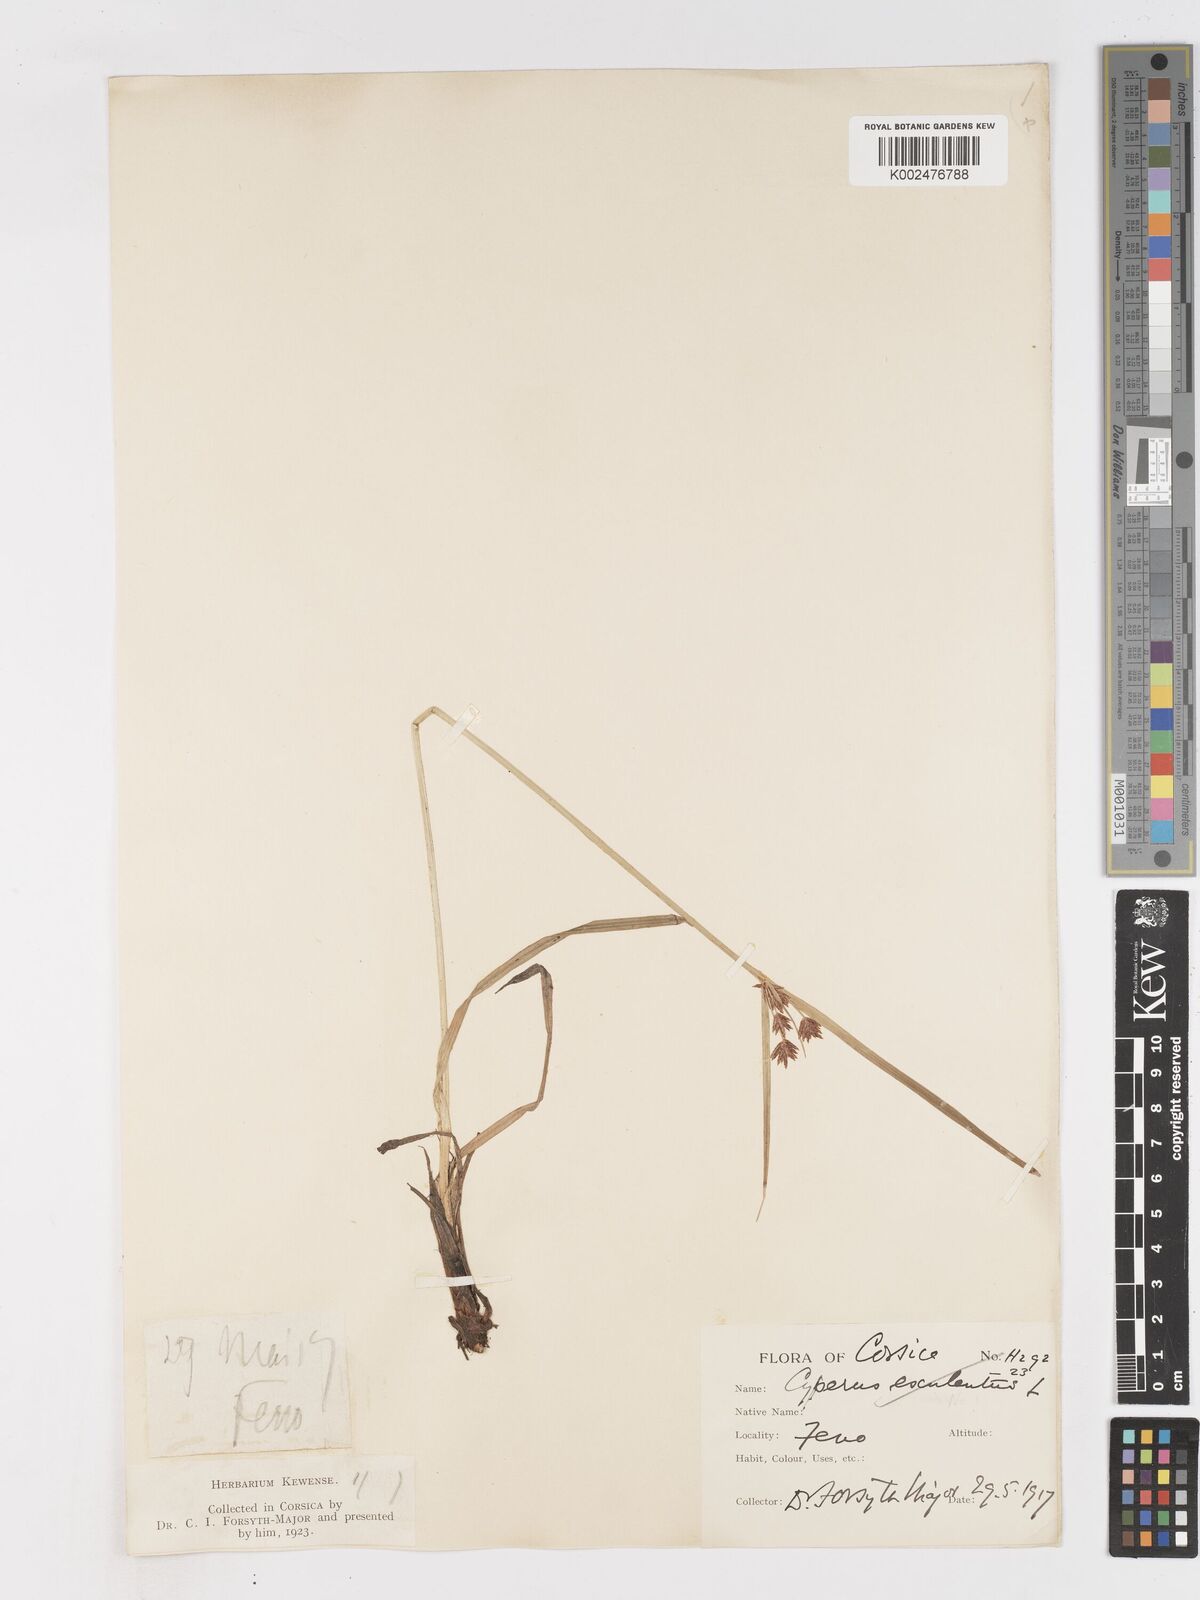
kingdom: Plantae
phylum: Tracheophyta
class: Liliopsida
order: Poales
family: Cyperaceae
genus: Cyperus
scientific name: Cyperus longus
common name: Galingale
